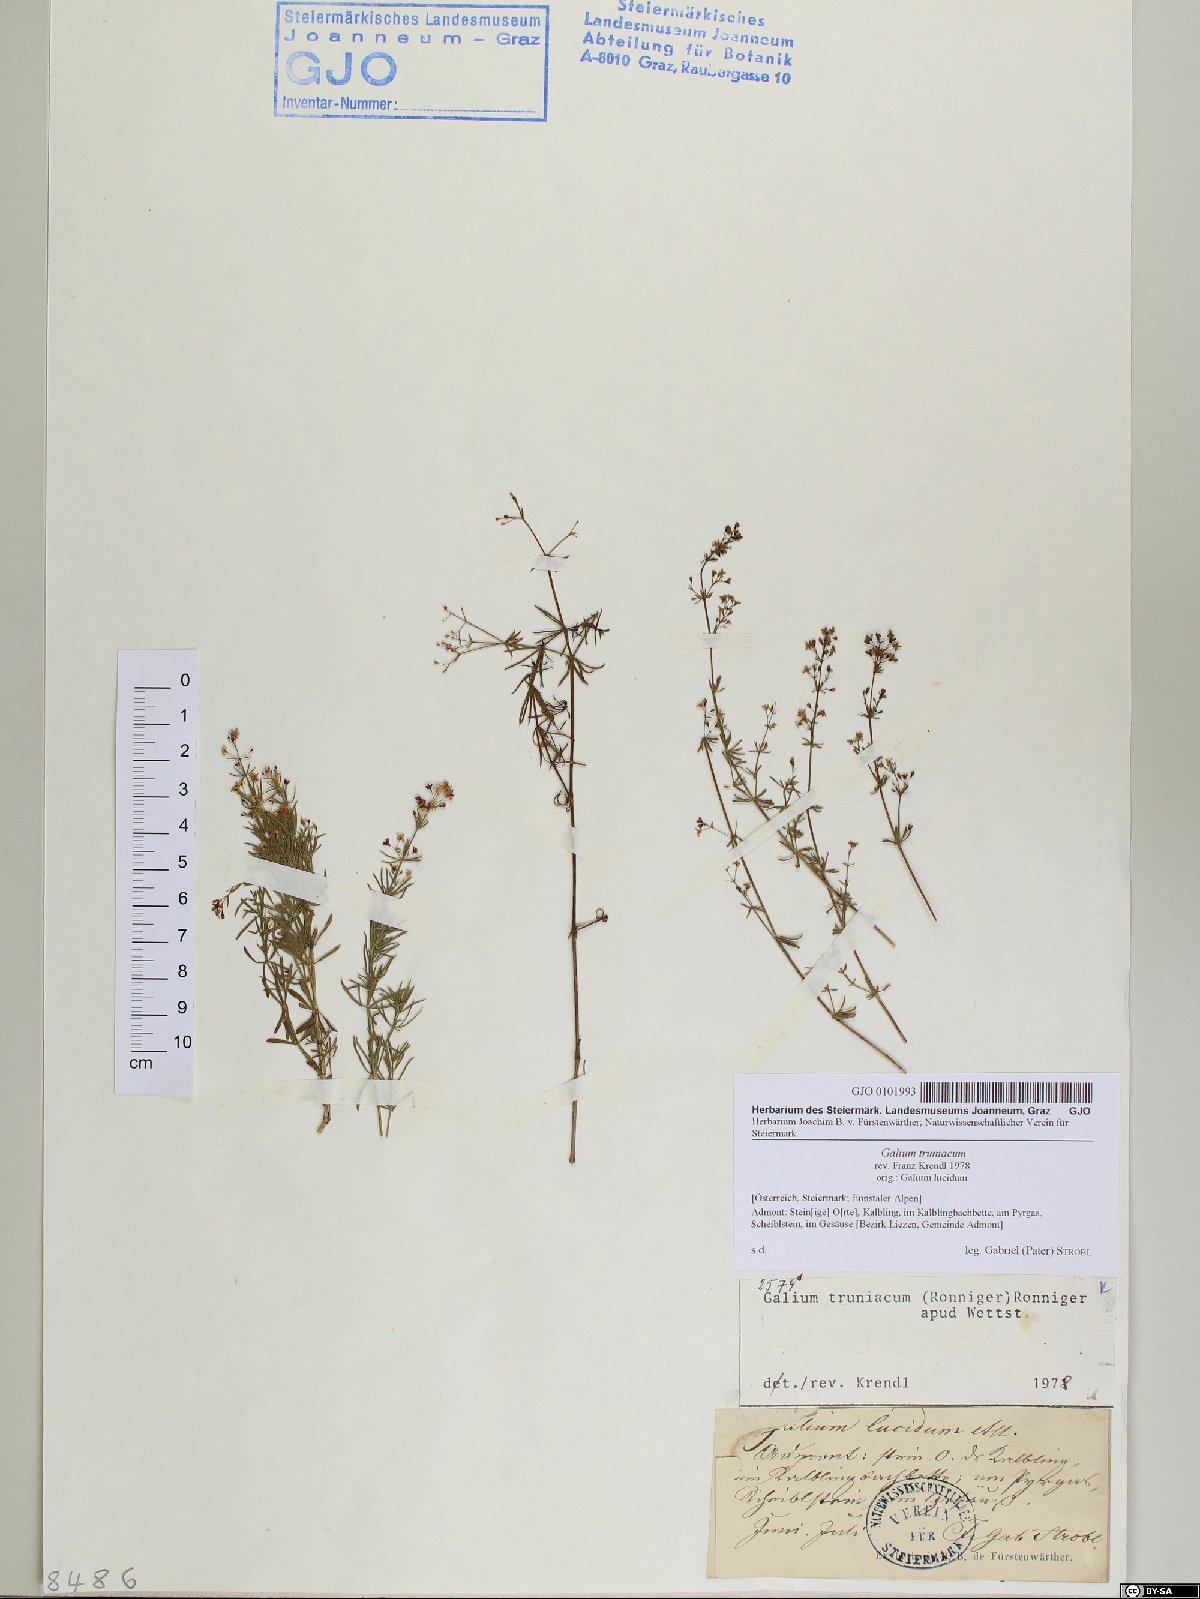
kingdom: Plantae
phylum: Tracheophyta
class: Magnoliopsida
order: Gentianales
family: Rubiaceae
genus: Galium
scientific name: Galium truniacum
